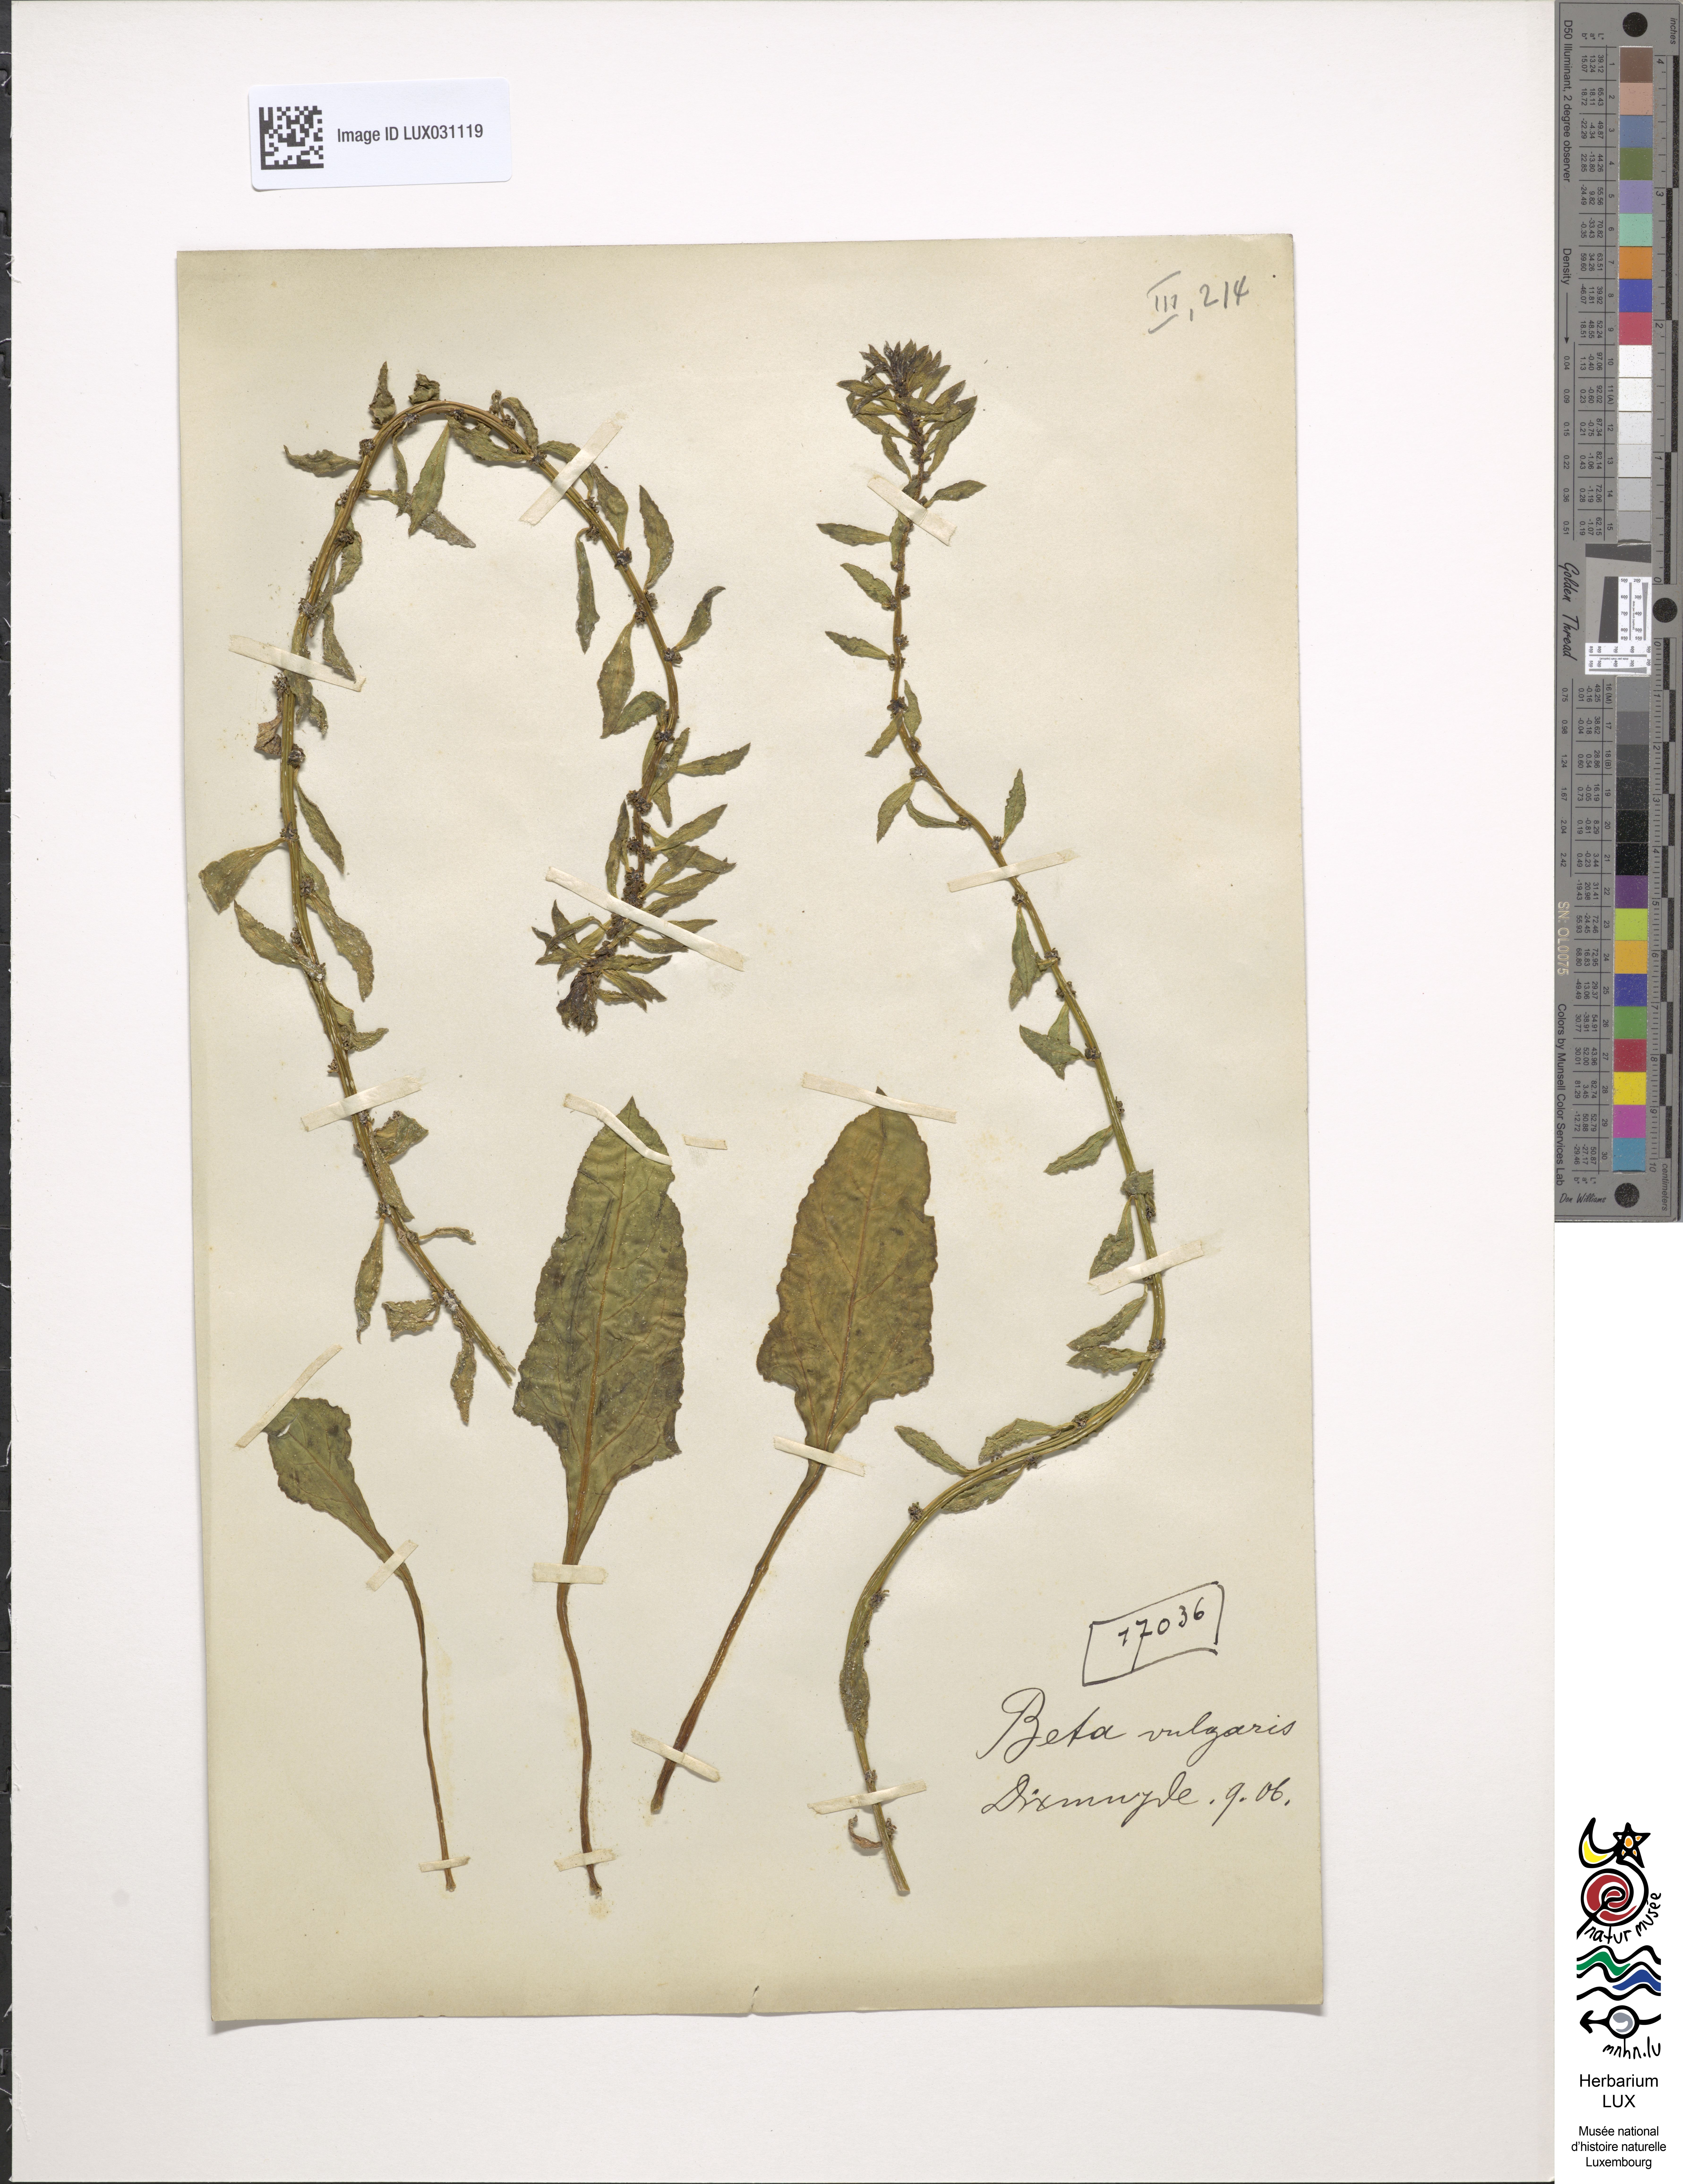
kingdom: Plantae
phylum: Tracheophyta
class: Magnoliopsida
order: Caryophyllales
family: Amaranthaceae
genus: Beta
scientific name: Beta vulgaris
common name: Beet
